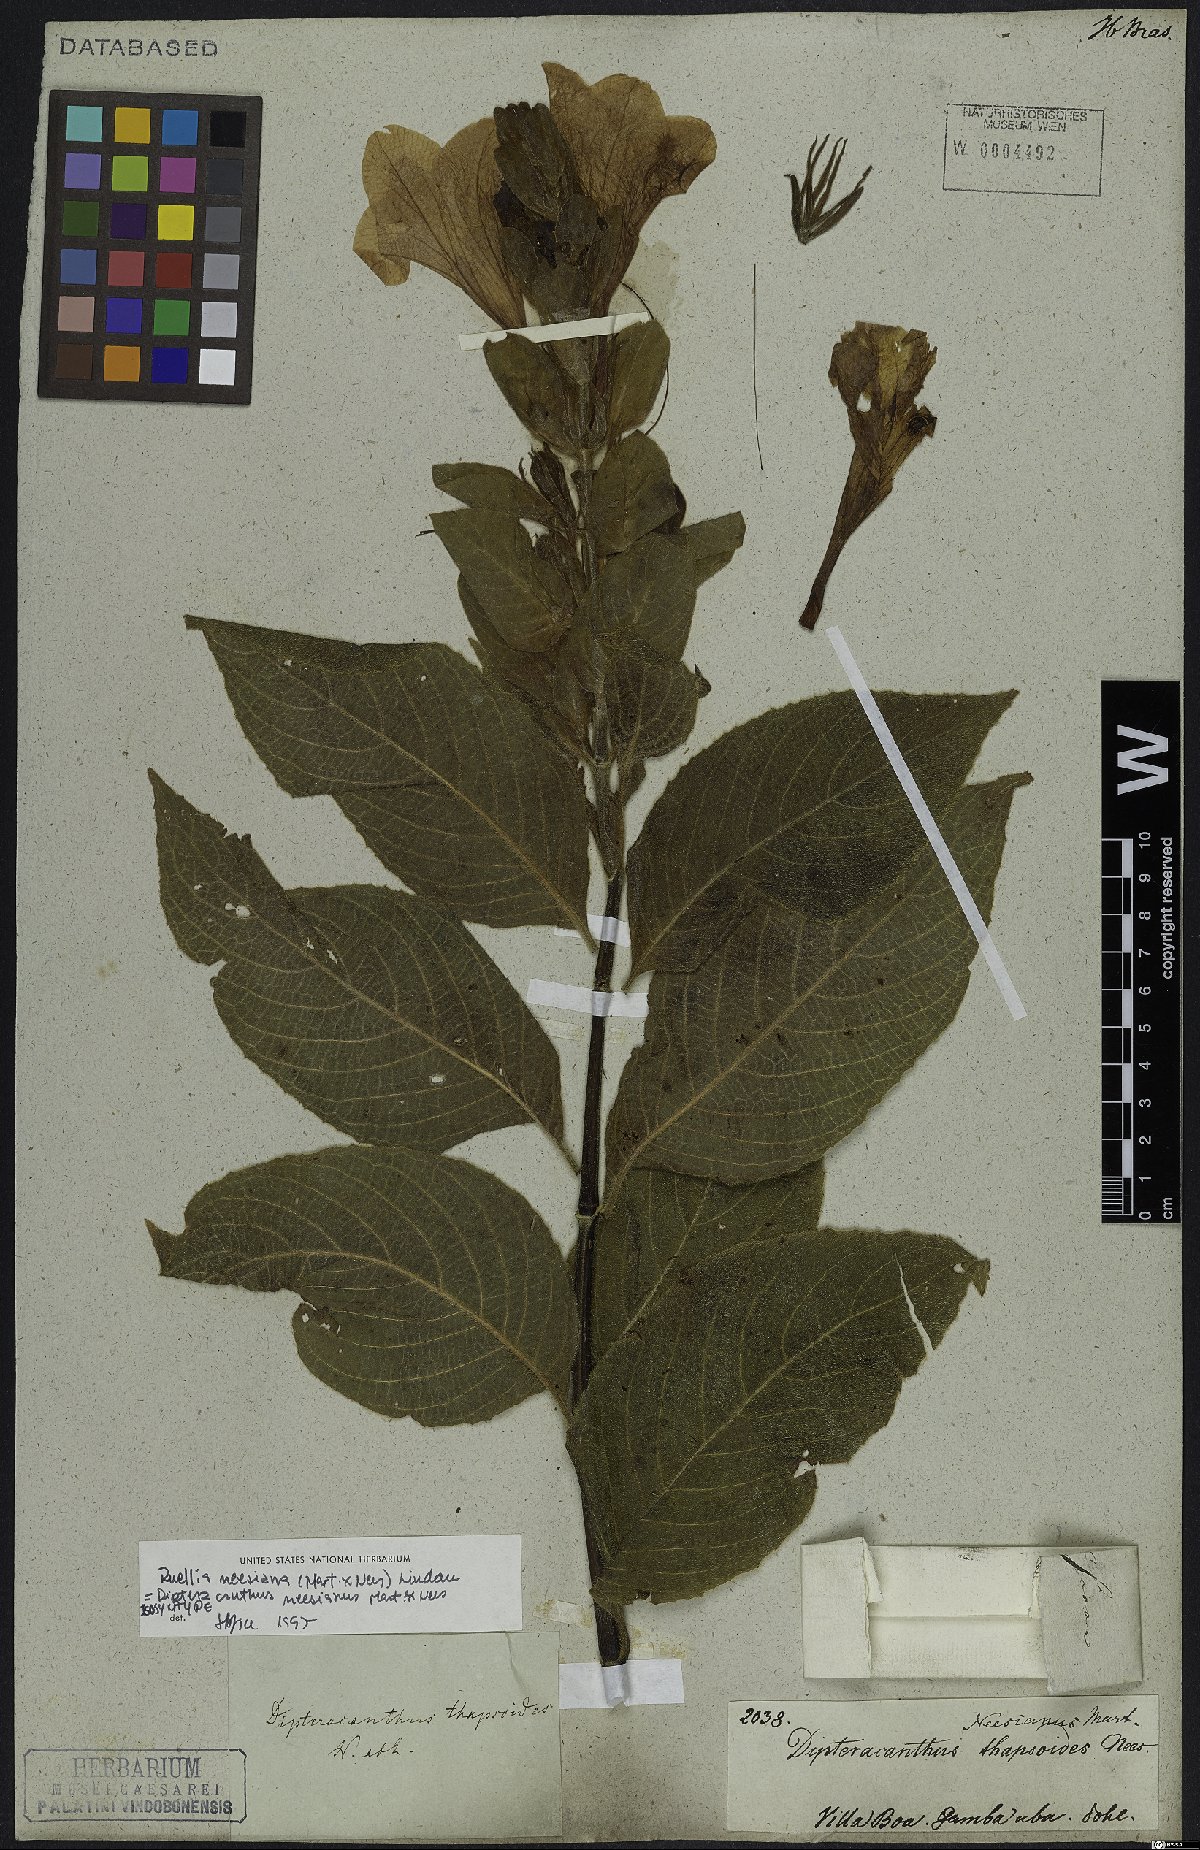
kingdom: Plantae
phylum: Tracheophyta
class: Magnoliopsida
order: Lamiales
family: Acanthaceae
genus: Ruellia
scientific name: Ruellia neesiana
